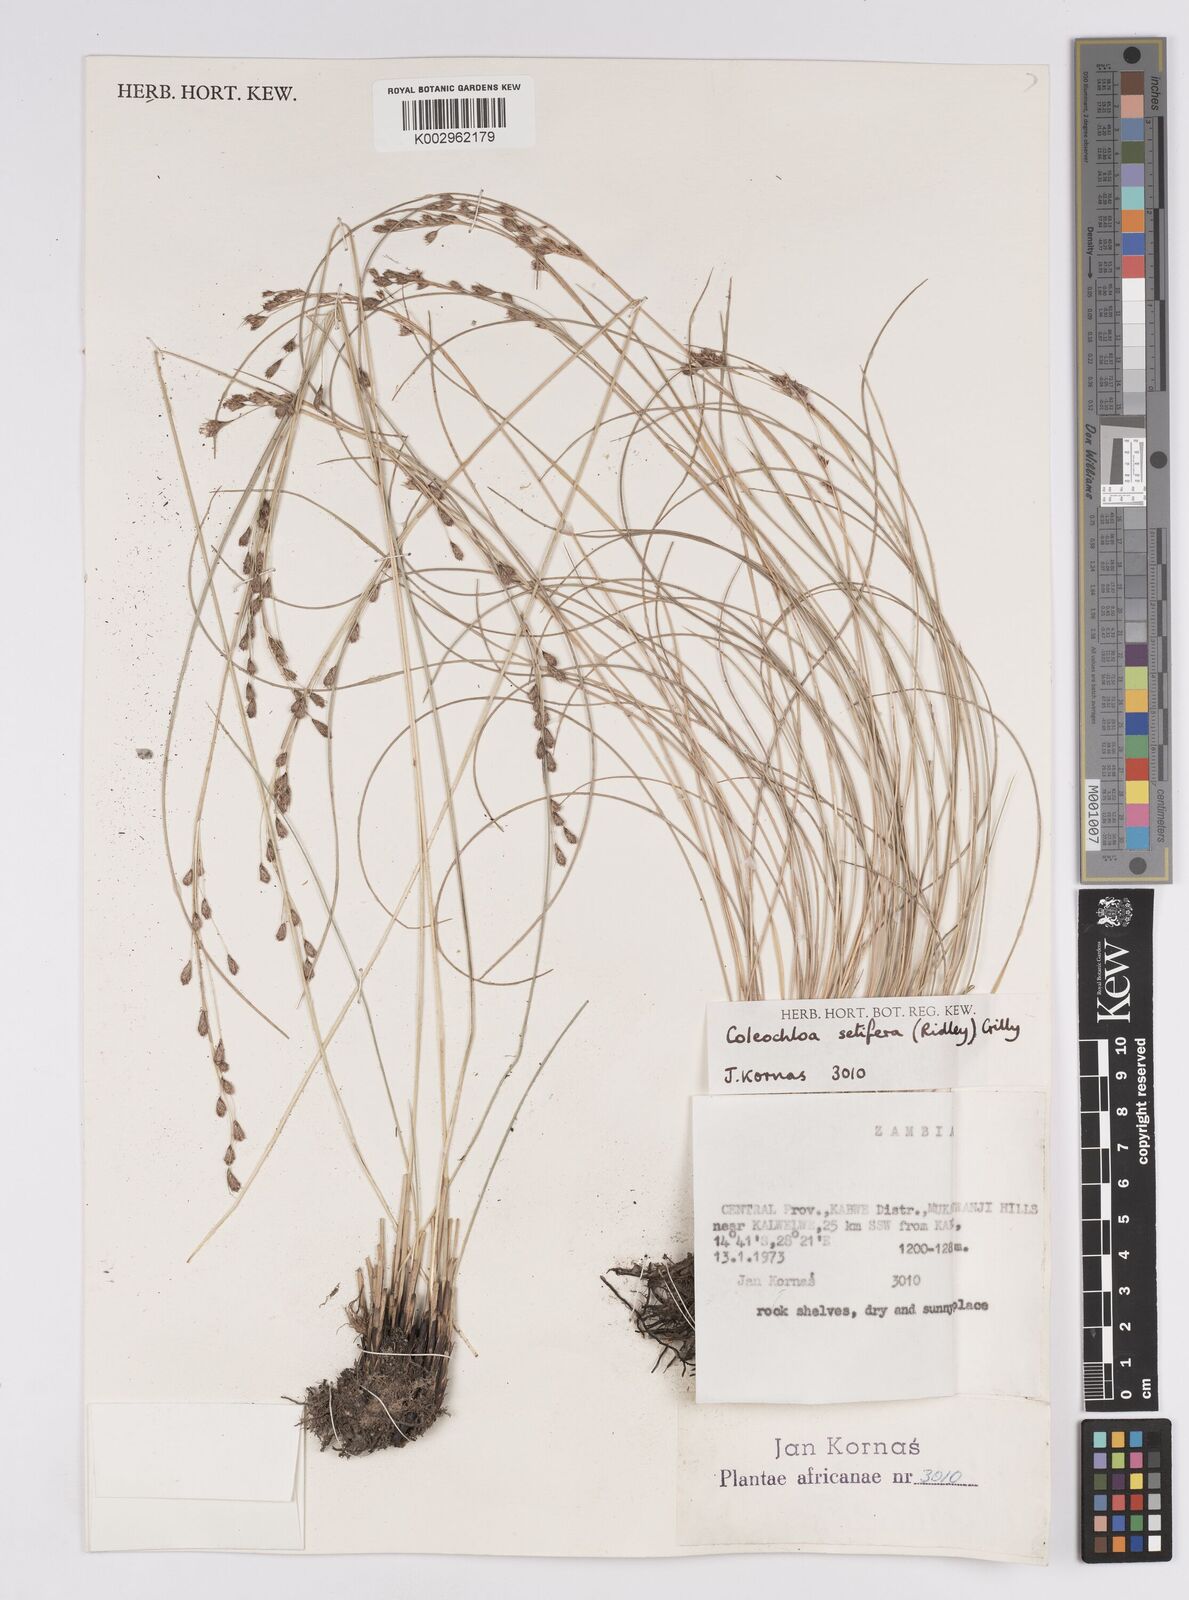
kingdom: Plantae
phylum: Tracheophyta
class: Liliopsida
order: Poales
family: Cyperaceae
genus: Coleochloa
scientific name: Coleochloa setifera
